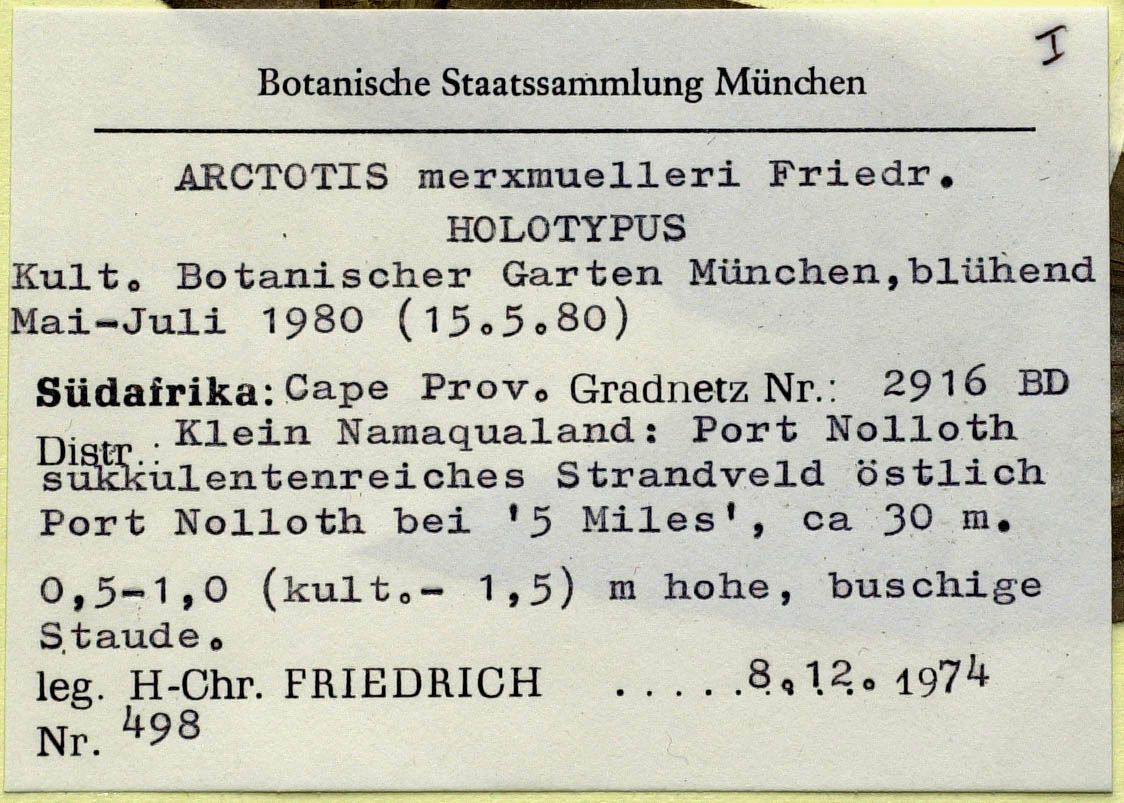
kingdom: Plantae
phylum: Tracheophyta
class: Magnoliopsida
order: Asterales
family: Asteraceae
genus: Arctotis
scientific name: Arctotis decurrens
